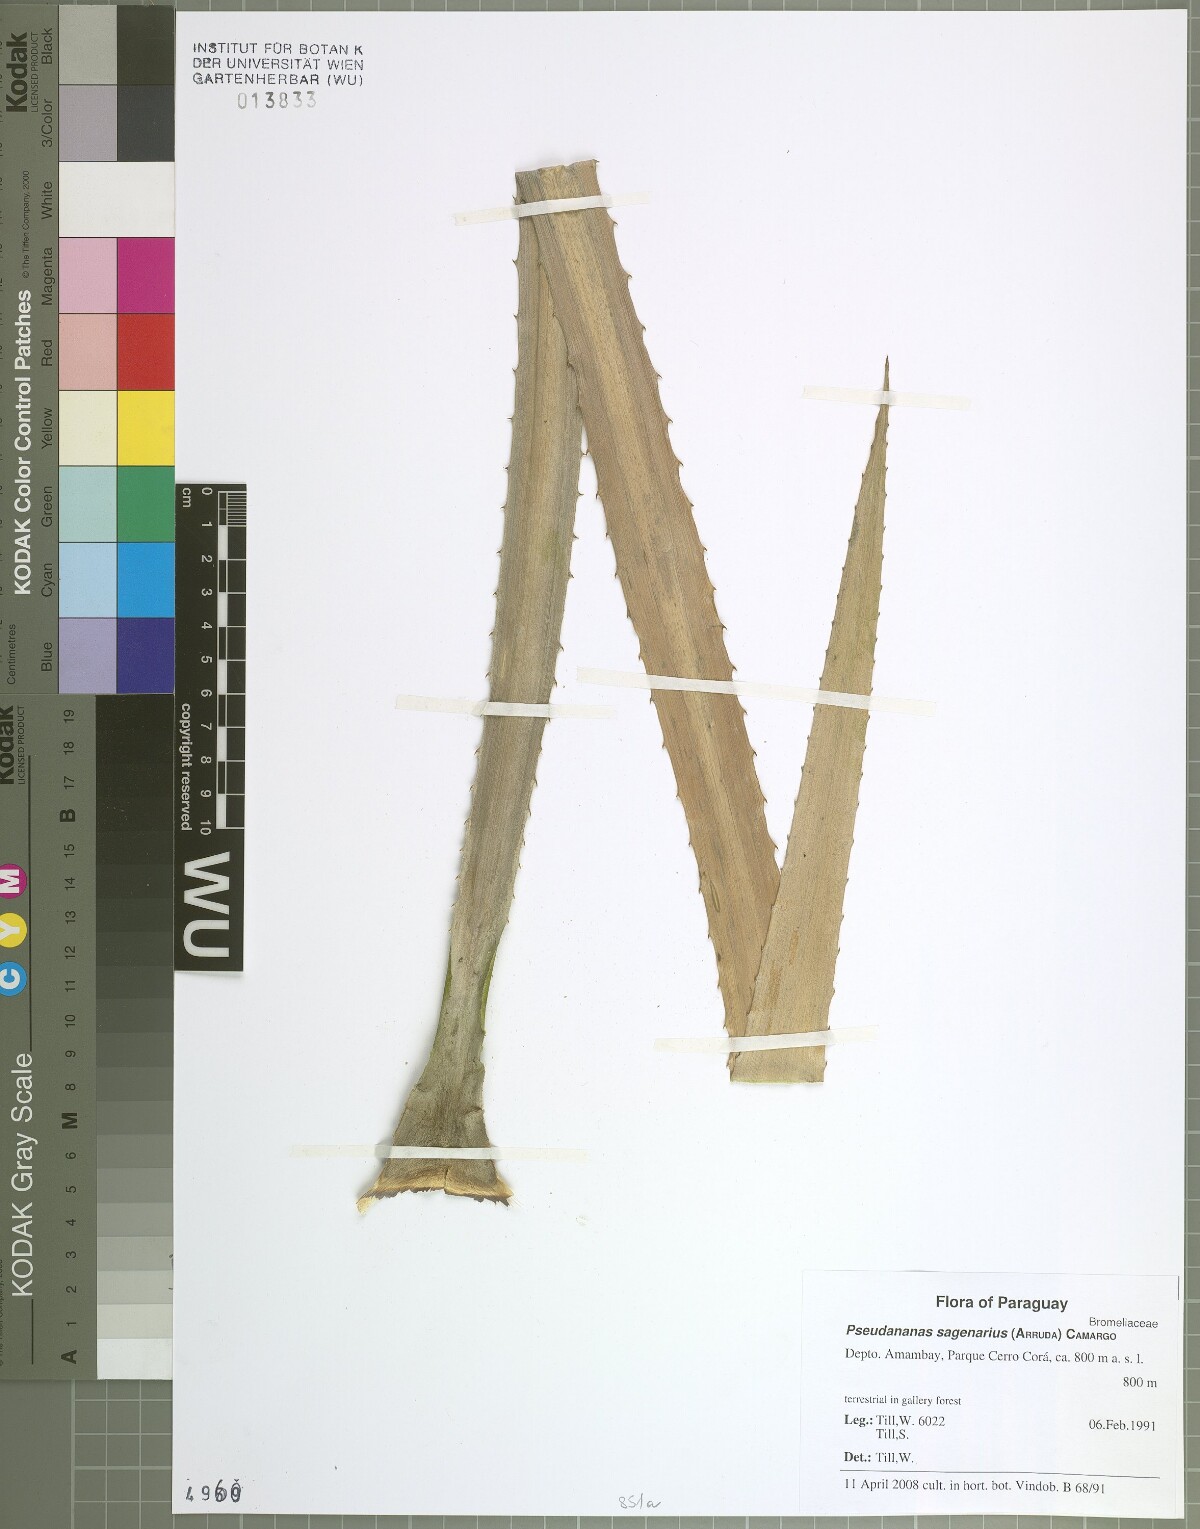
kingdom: Plantae
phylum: Tracheophyta
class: Liliopsida
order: Poales
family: Bromeliaceae
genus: Ananas
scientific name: Ananas comosus
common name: Pineapple
